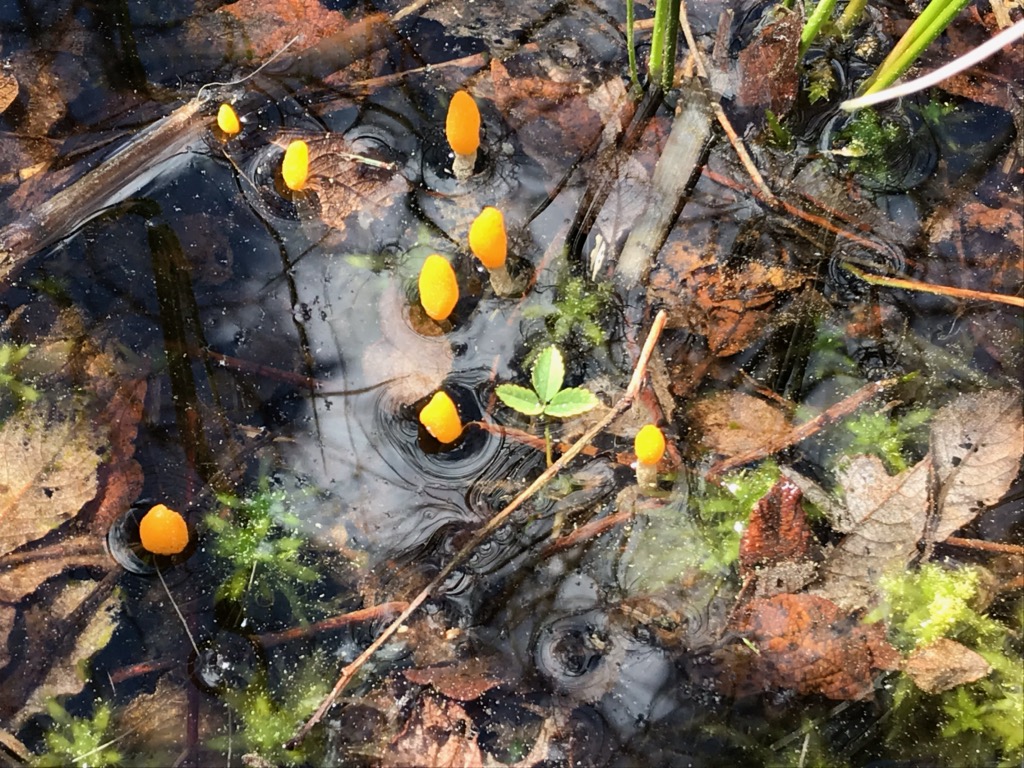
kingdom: Fungi
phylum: Ascomycota
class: Leotiomycetes
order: Helotiales
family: Cenangiaceae
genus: Mitrula
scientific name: Mitrula paludosa
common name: gul nøkketunge
